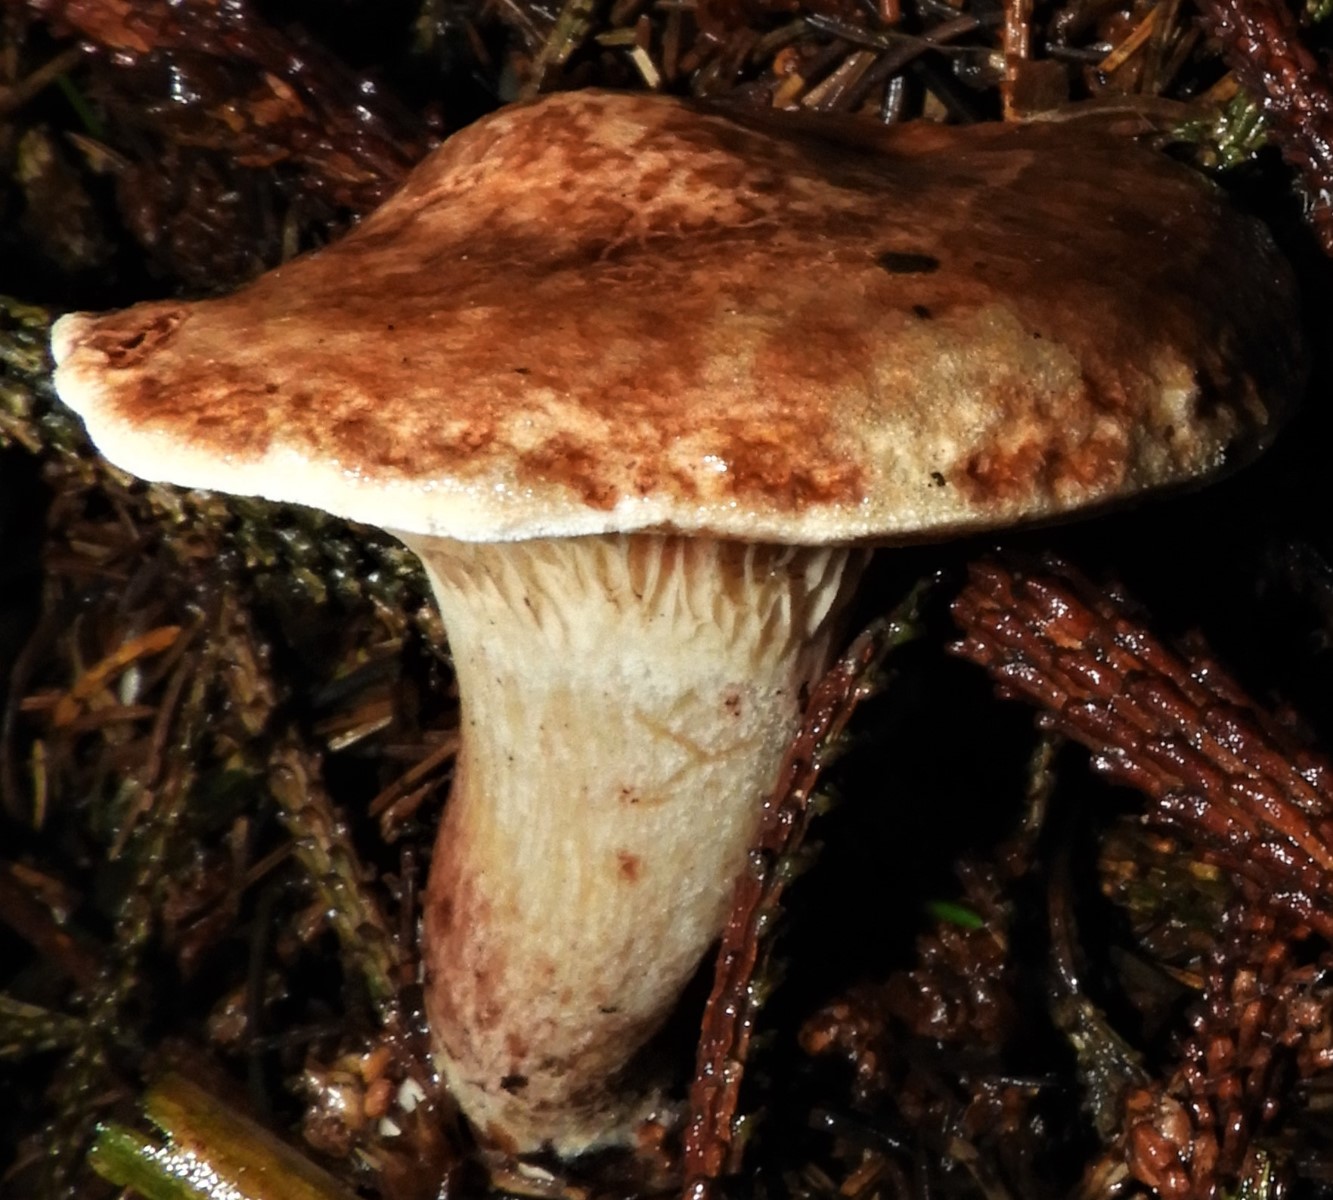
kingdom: Fungi
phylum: Basidiomycota
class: Agaricomycetes
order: Boletales
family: Paxillaceae
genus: Paxillus
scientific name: Paxillus
